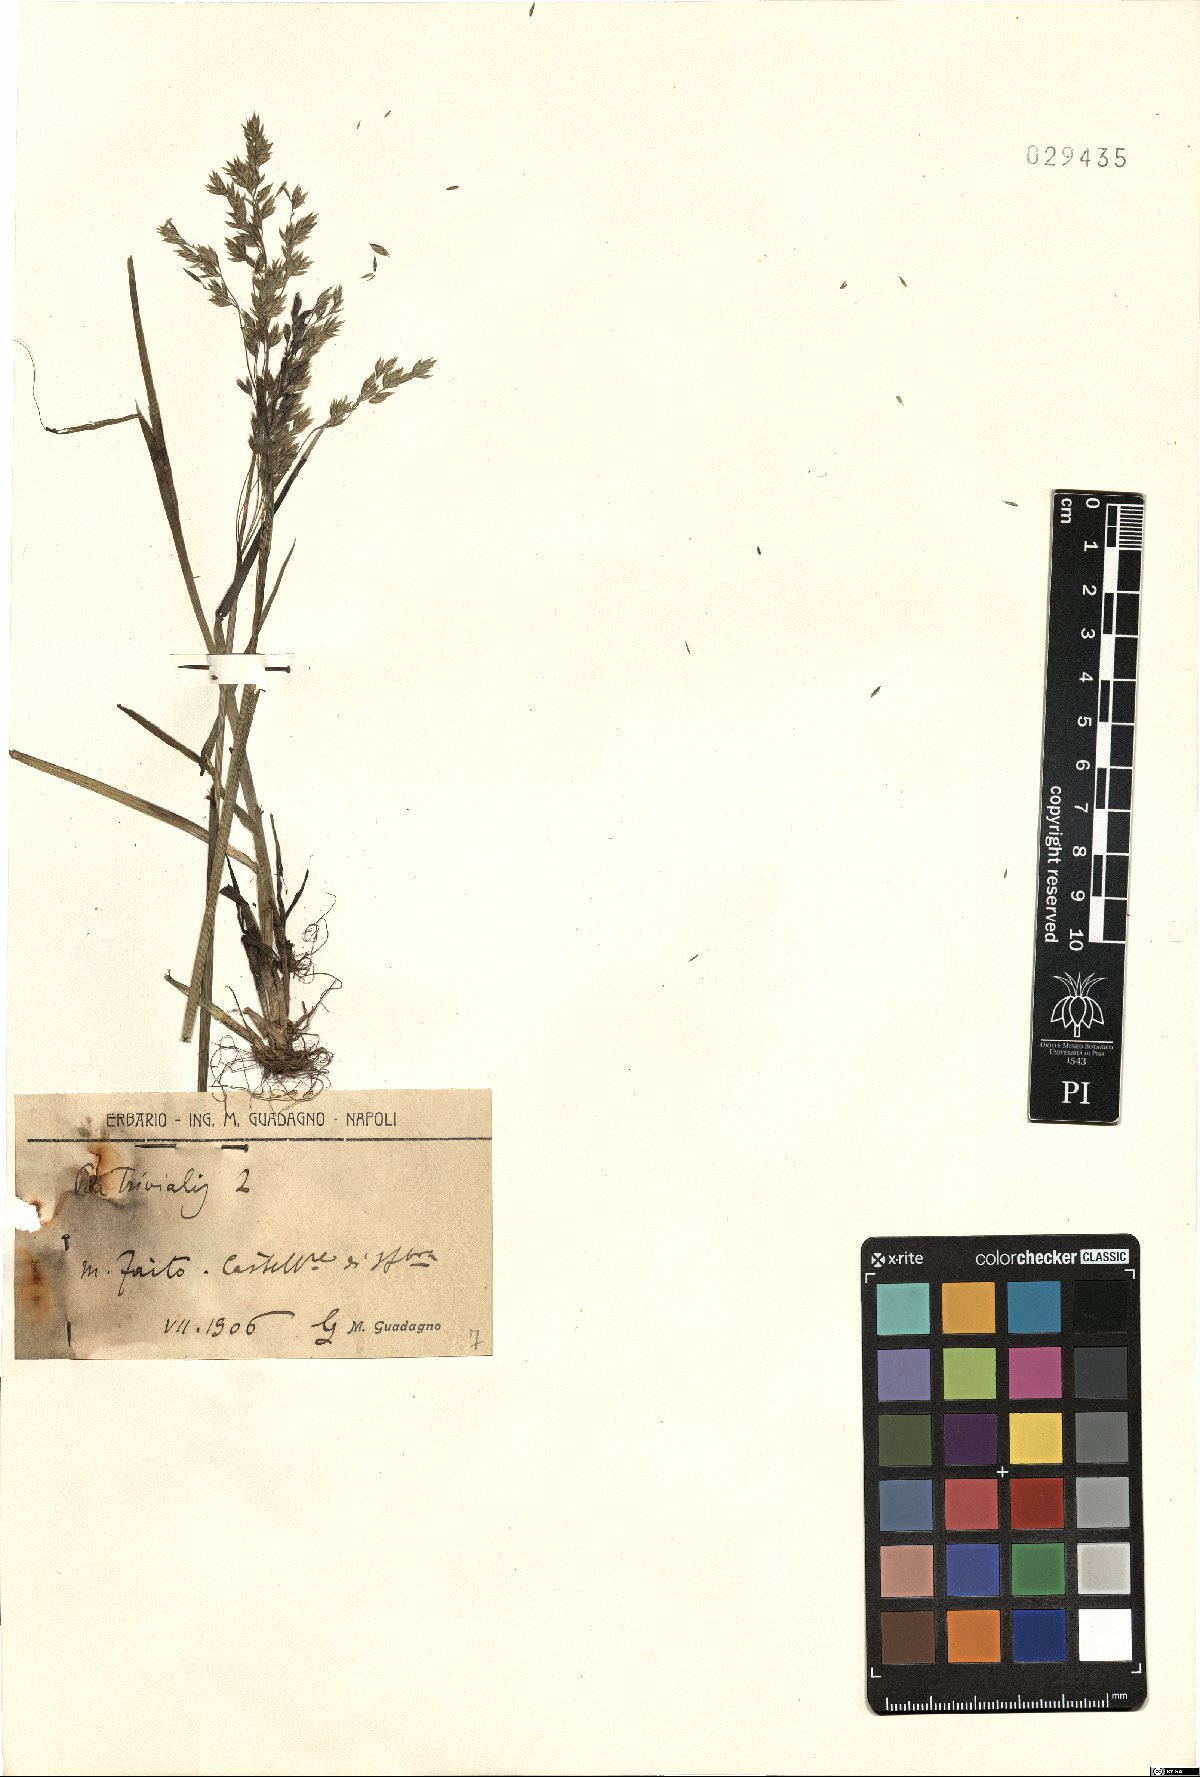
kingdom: Plantae
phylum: Tracheophyta
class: Liliopsida
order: Poales
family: Poaceae
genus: Poa
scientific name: Poa trivialis
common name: Rough bluegrass
